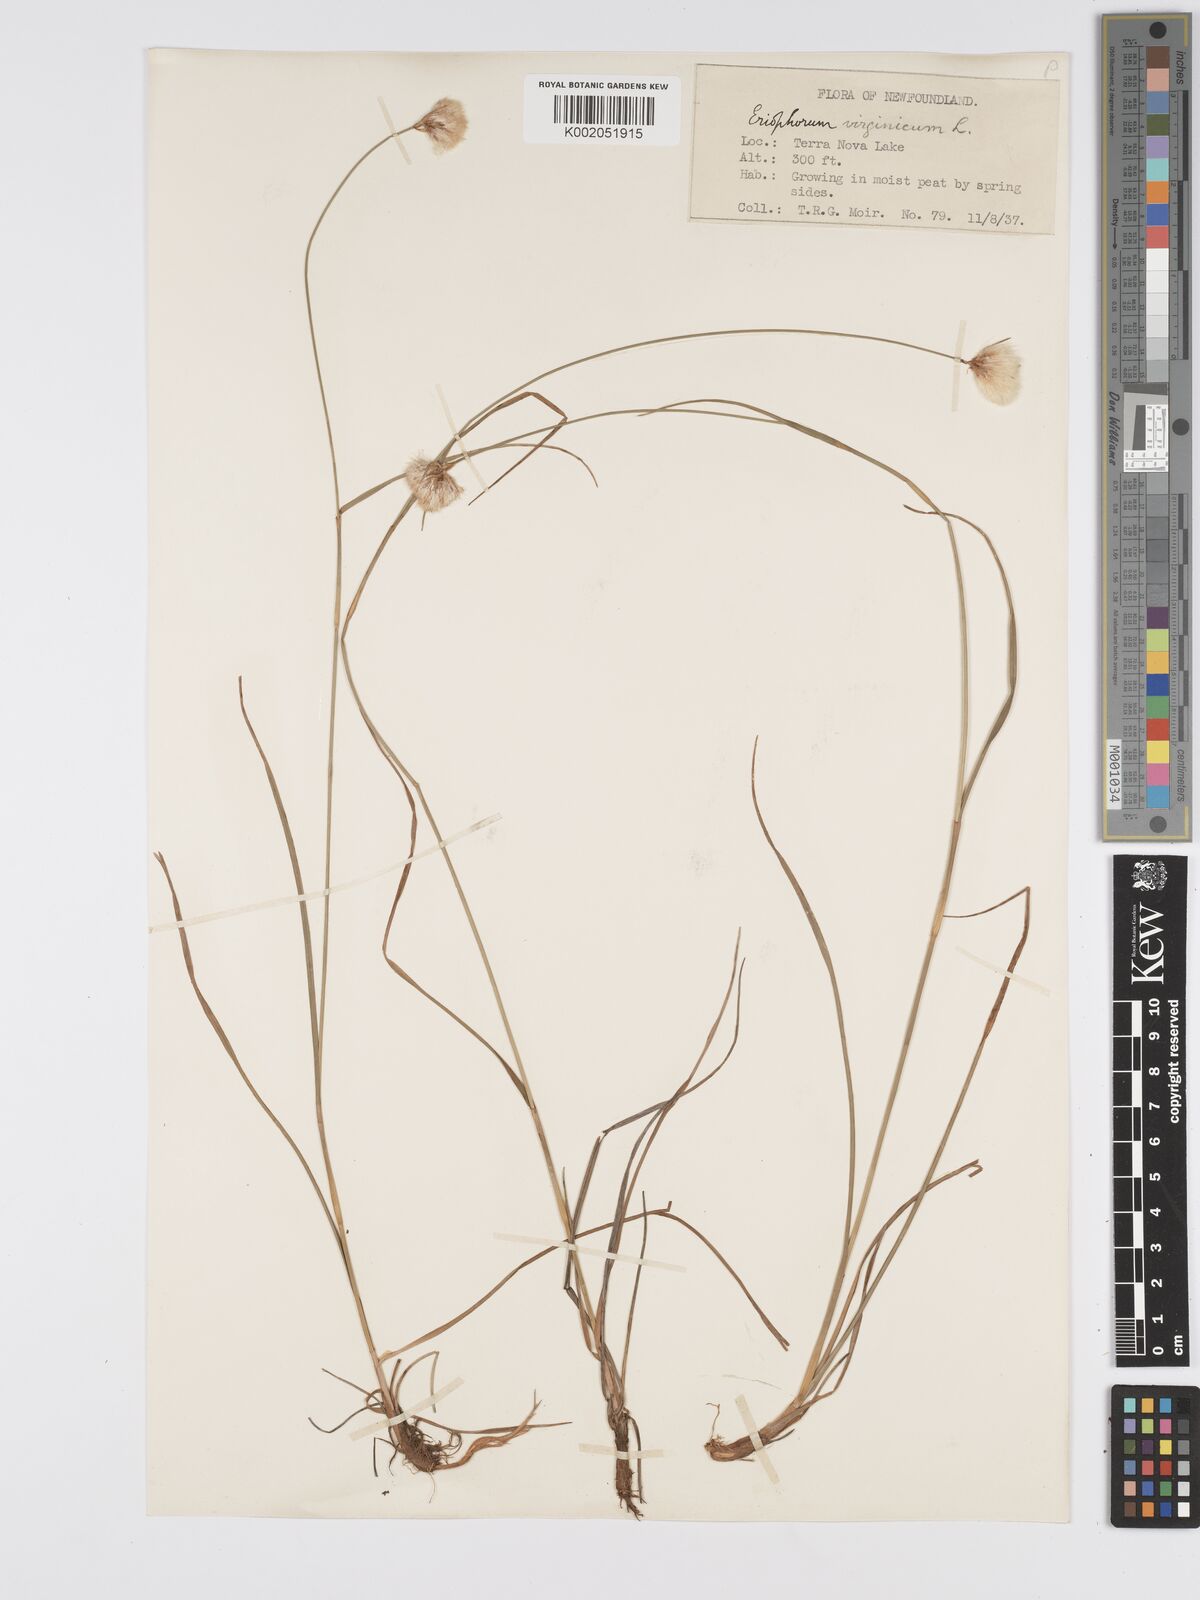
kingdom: Plantae
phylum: Tracheophyta
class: Liliopsida
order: Poales
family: Cyperaceae
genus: Eriophorum
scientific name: Eriophorum virginicum
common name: Tawny cottongrass
